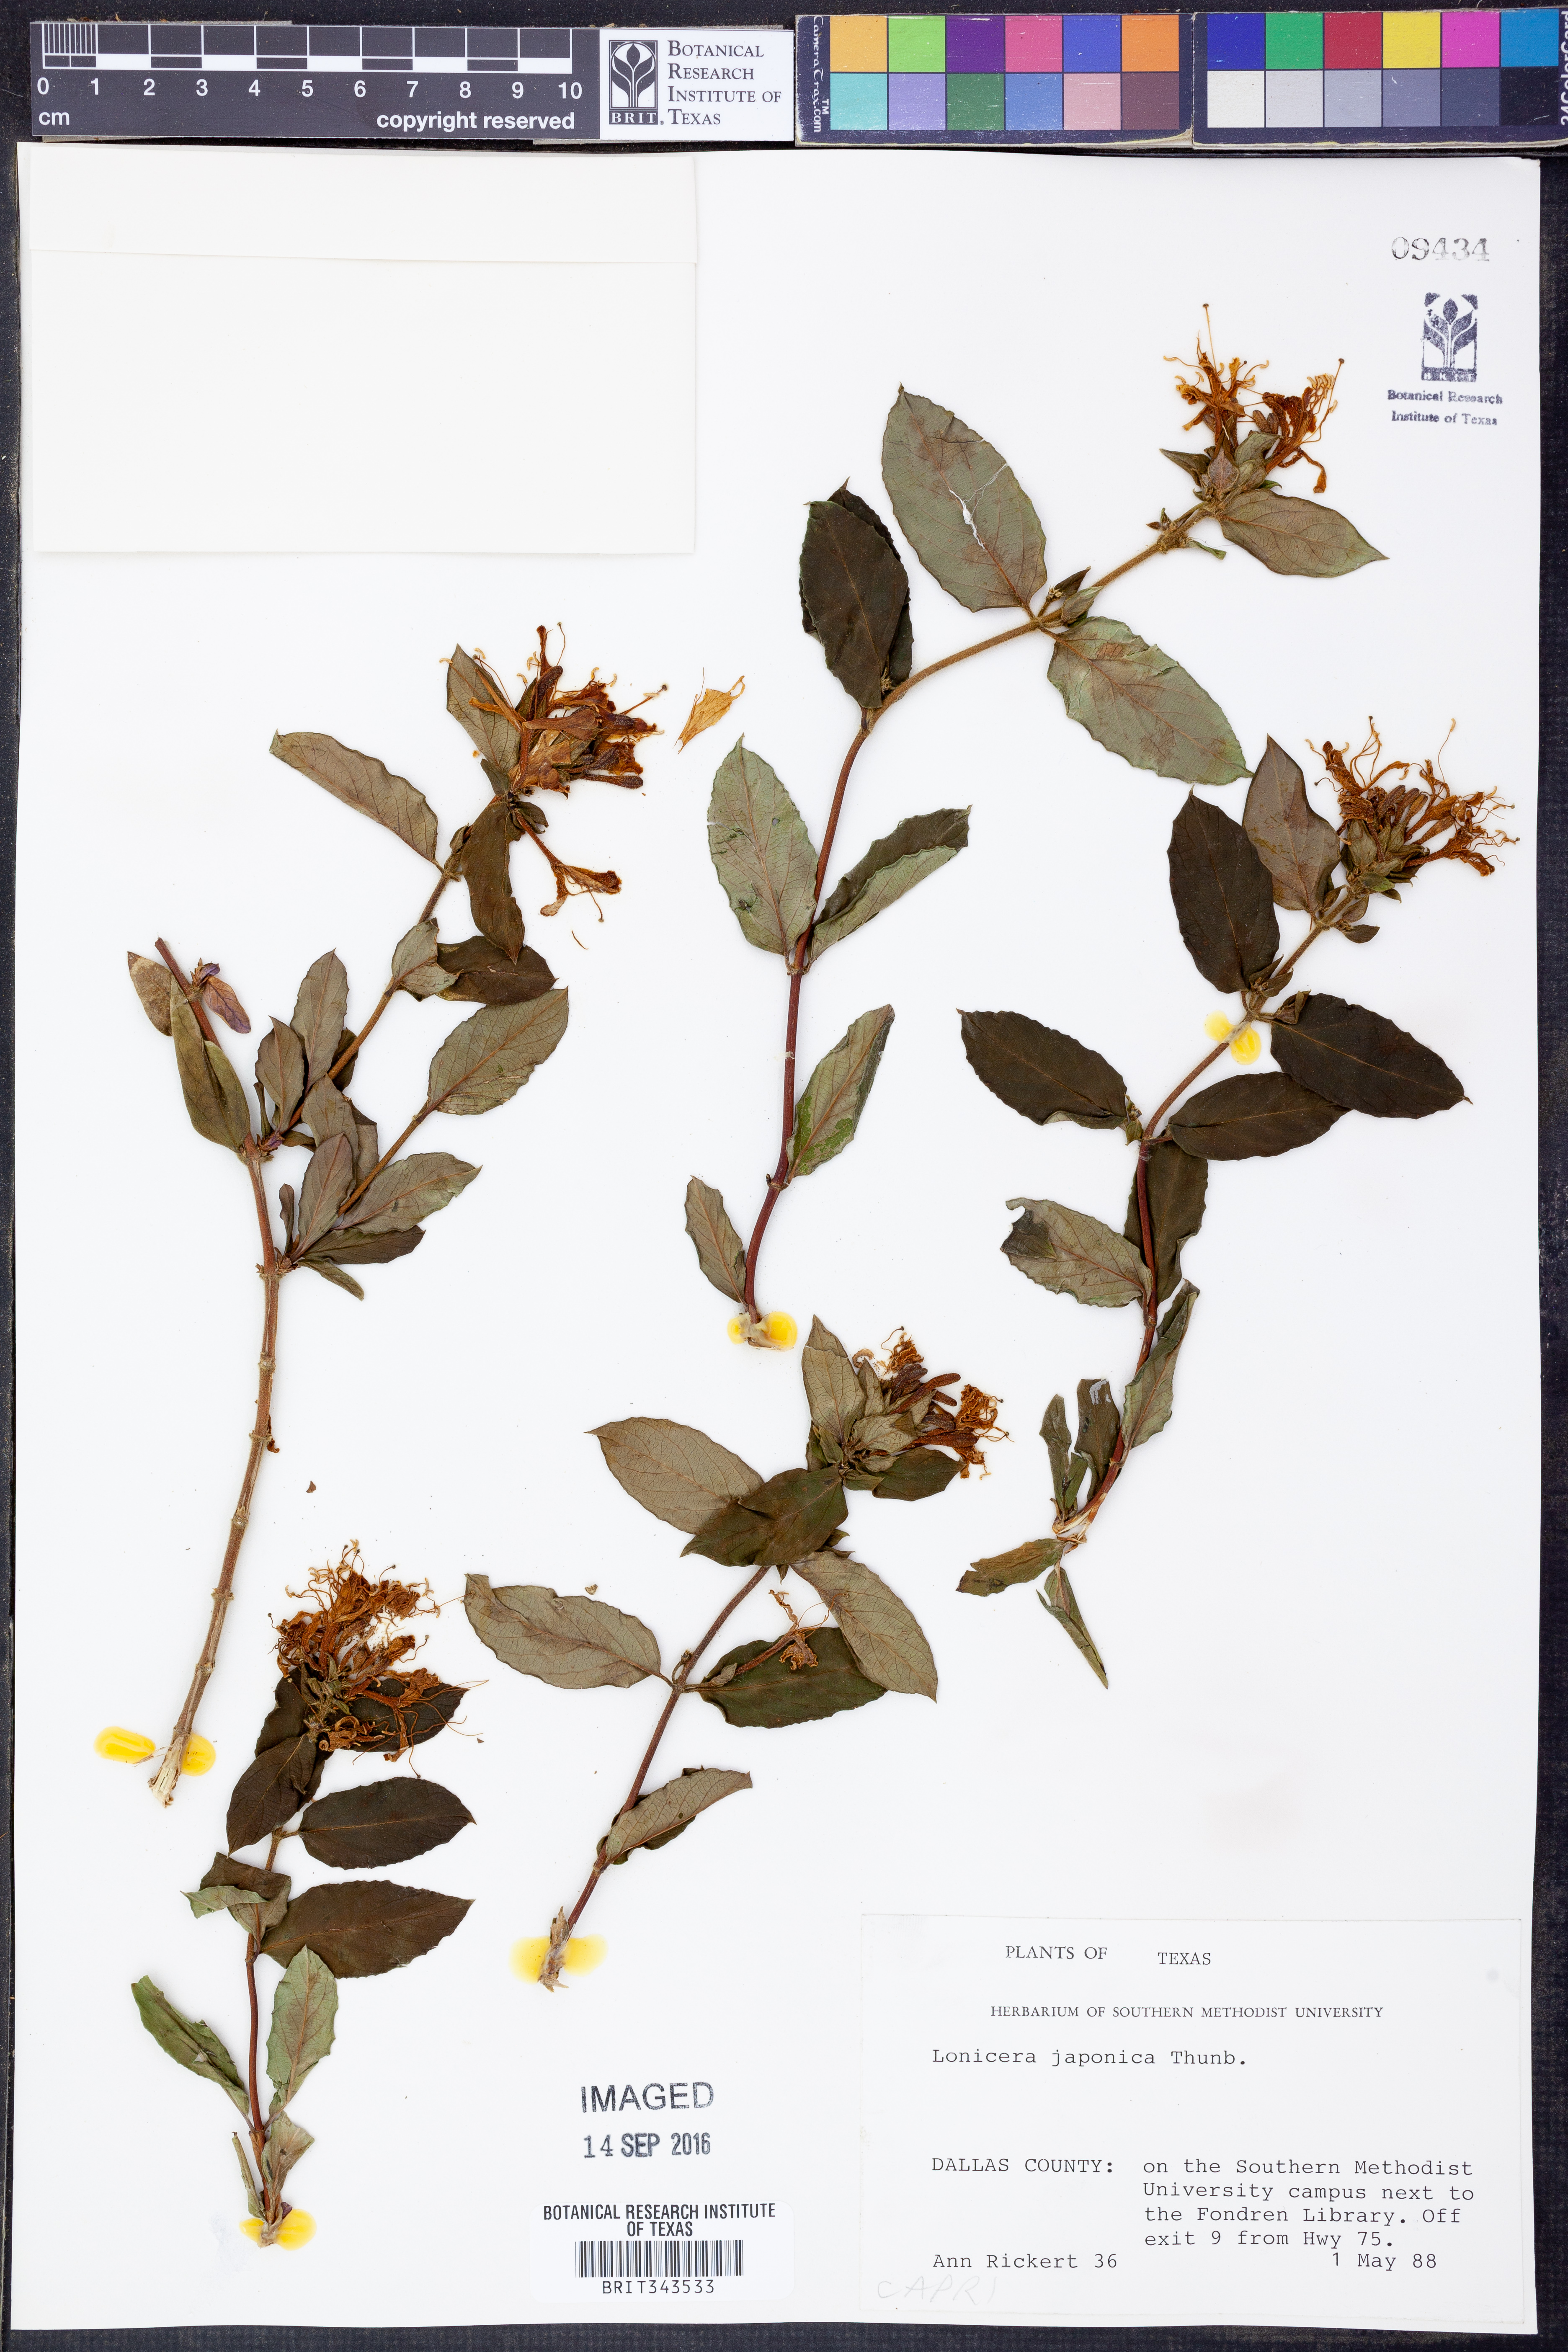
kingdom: Plantae
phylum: Tracheophyta
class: Magnoliopsida
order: Dipsacales
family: Caprifoliaceae
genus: Lonicera
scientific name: Lonicera japonica
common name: Japanese honeysuckle
